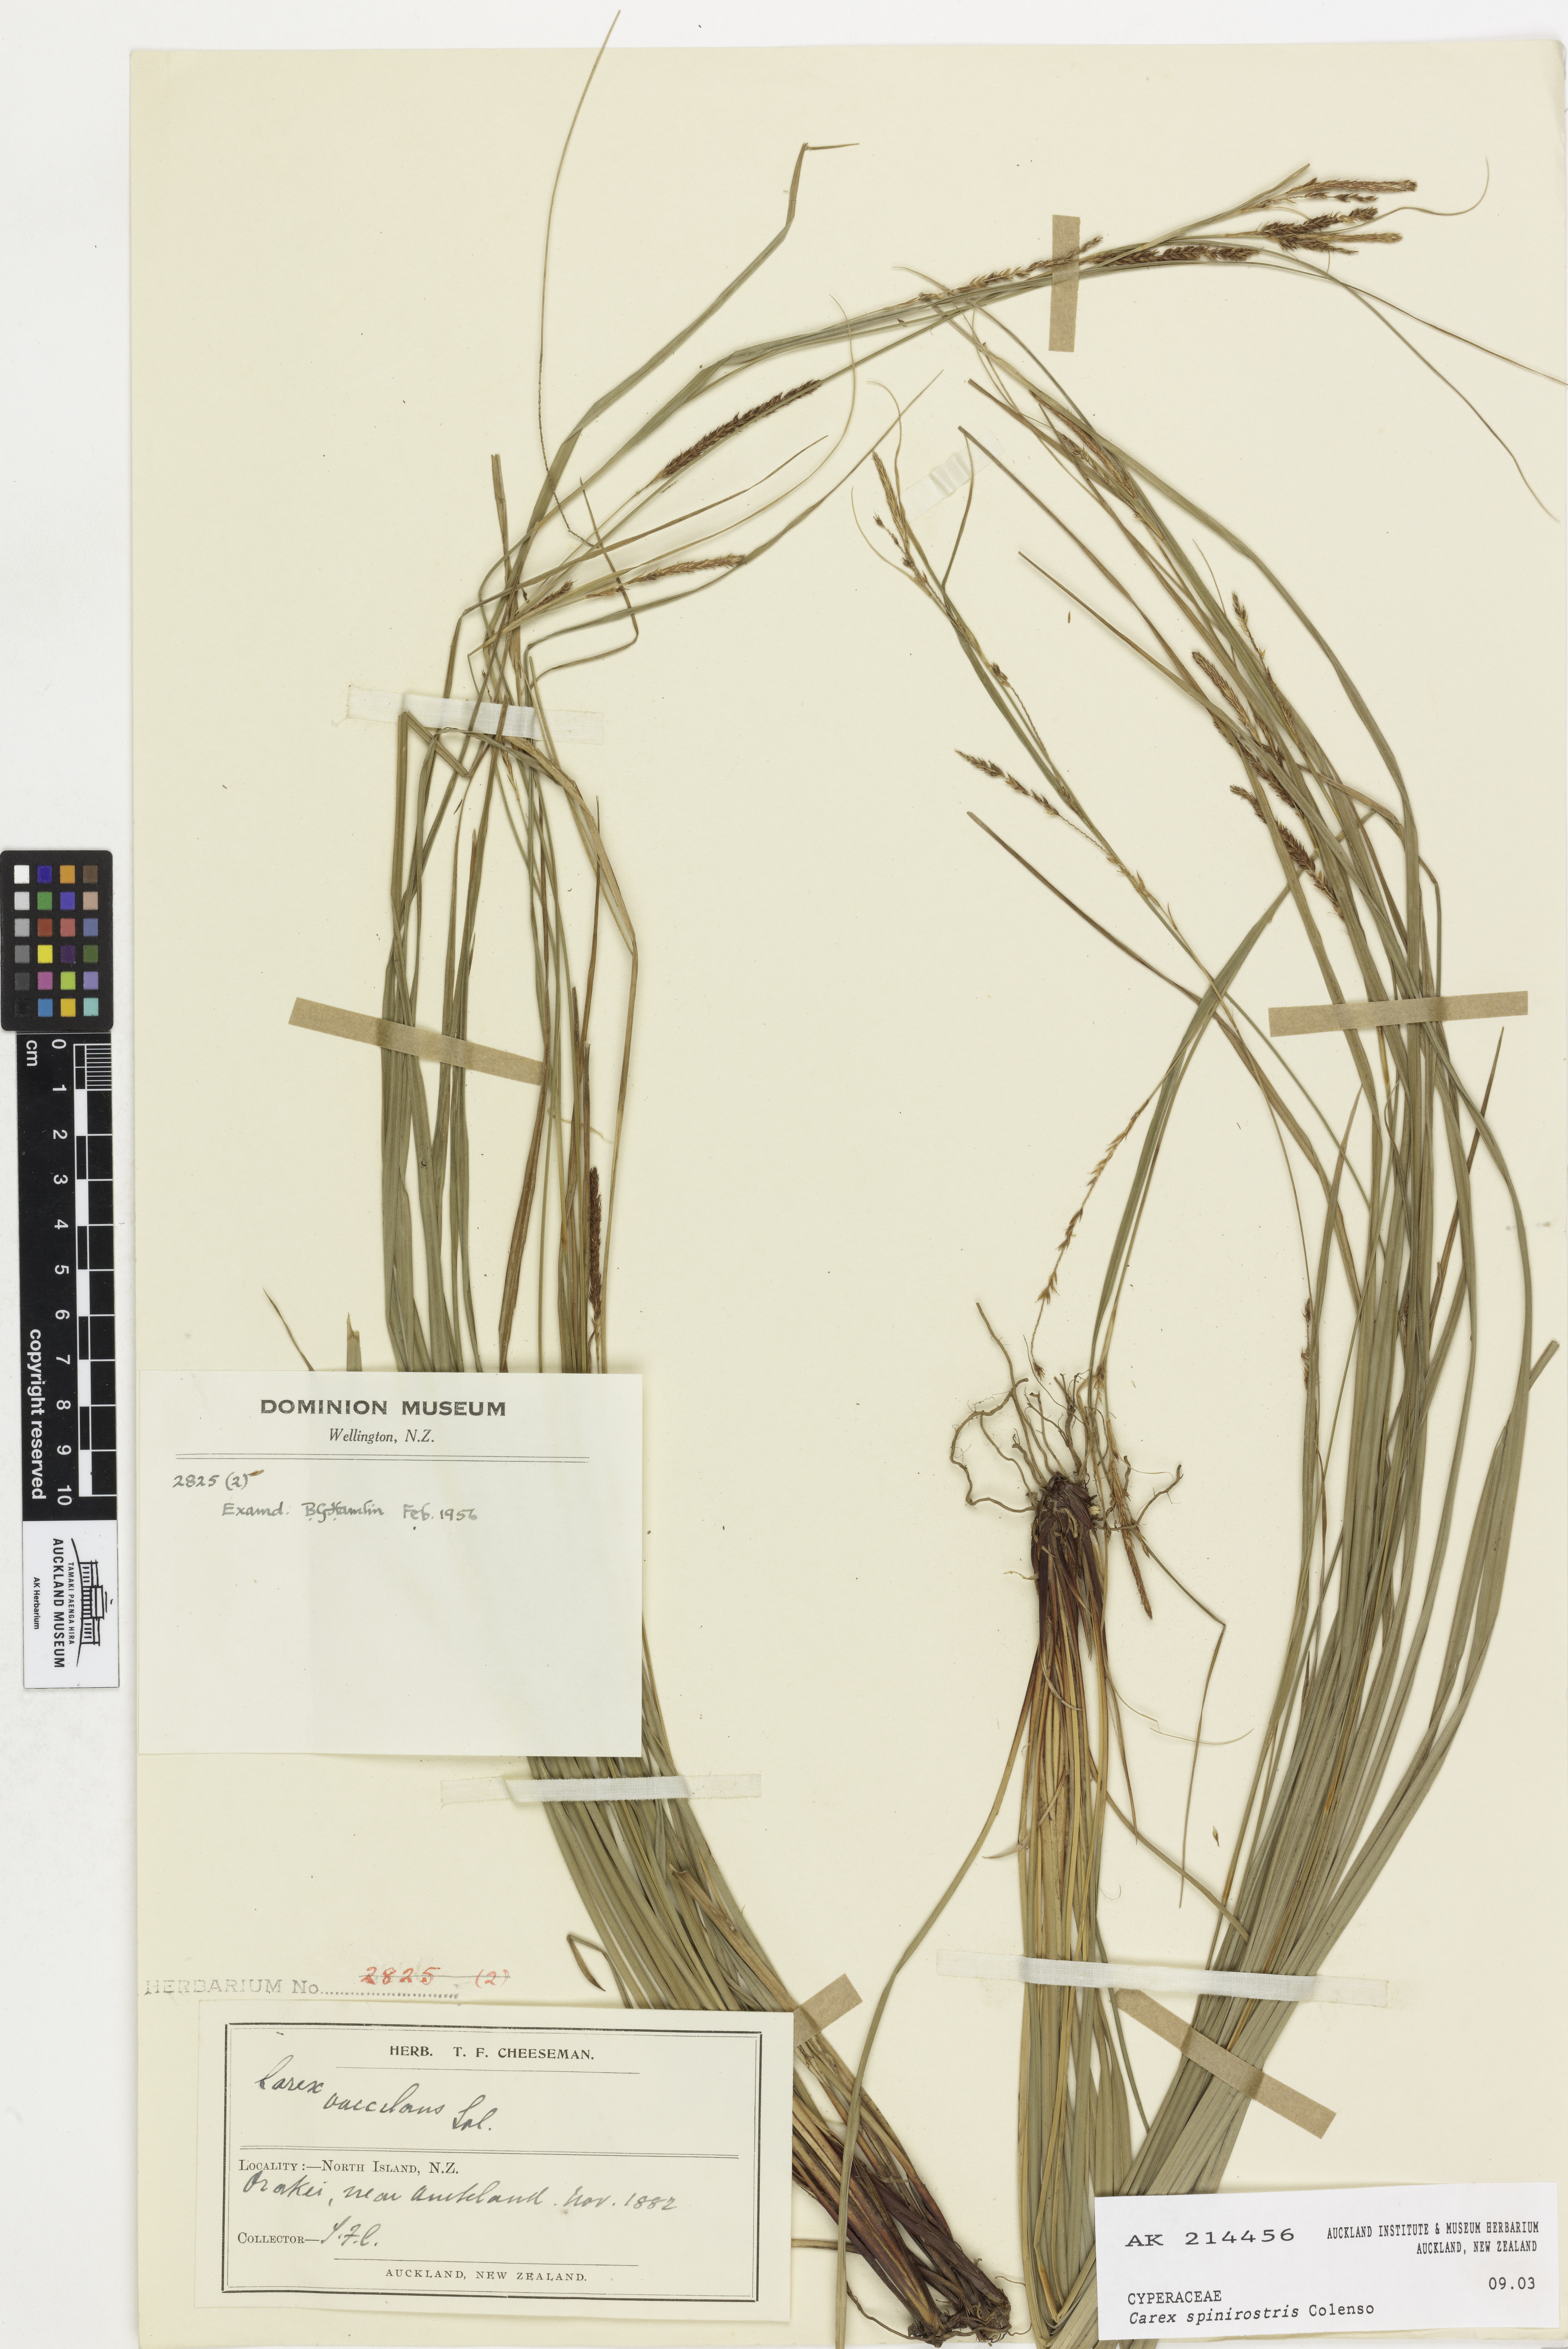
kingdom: Plantae
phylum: Tracheophyta
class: Liliopsida
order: Poales
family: Cyperaceae
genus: Carex
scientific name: Carex spinirostris
